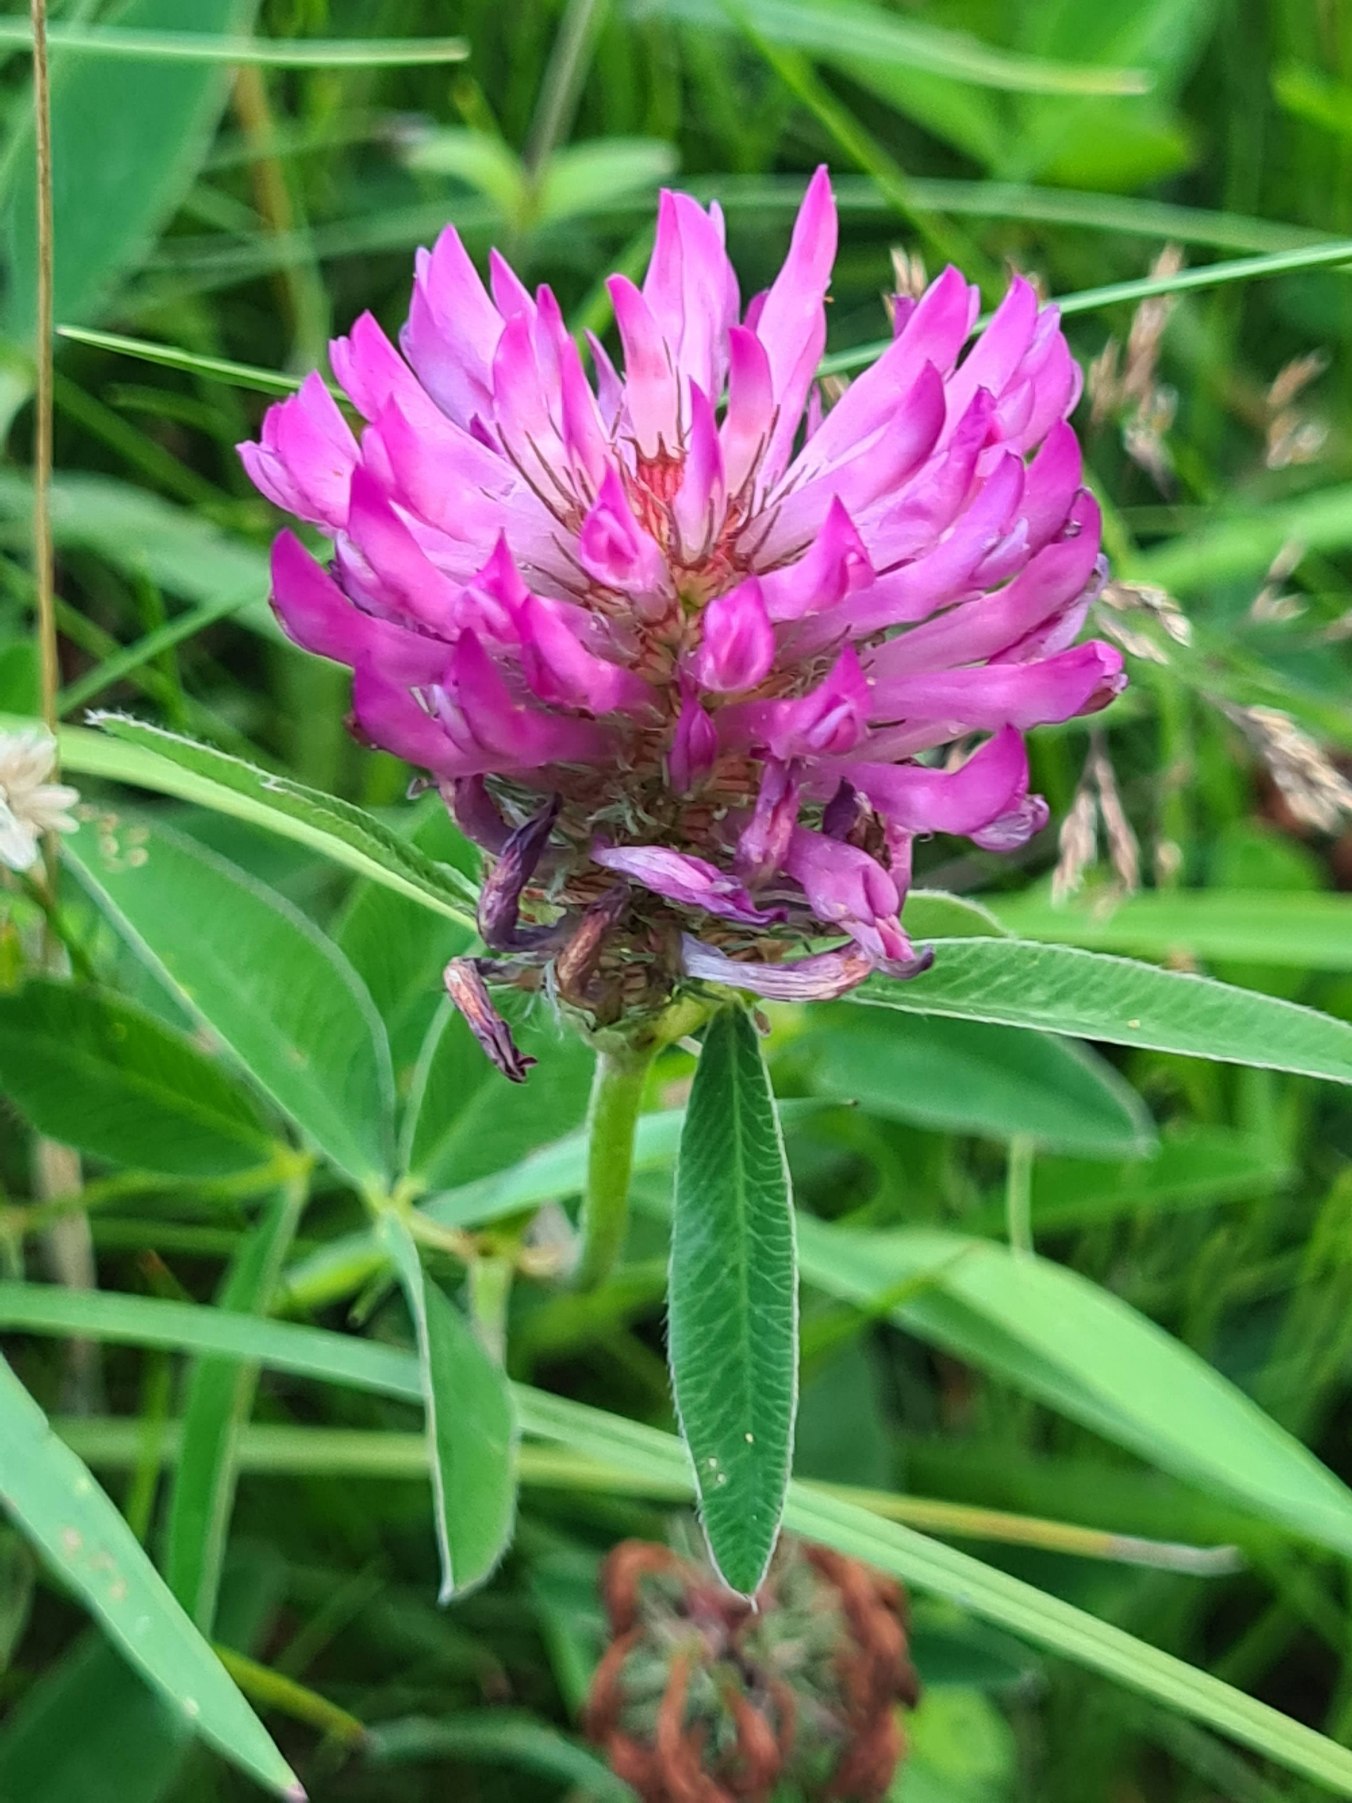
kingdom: Plantae
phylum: Tracheophyta
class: Magnoliopsida
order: Fabales
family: Fabaceae
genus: Trifolium
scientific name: Trifolium medium
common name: Bugtet kløver
